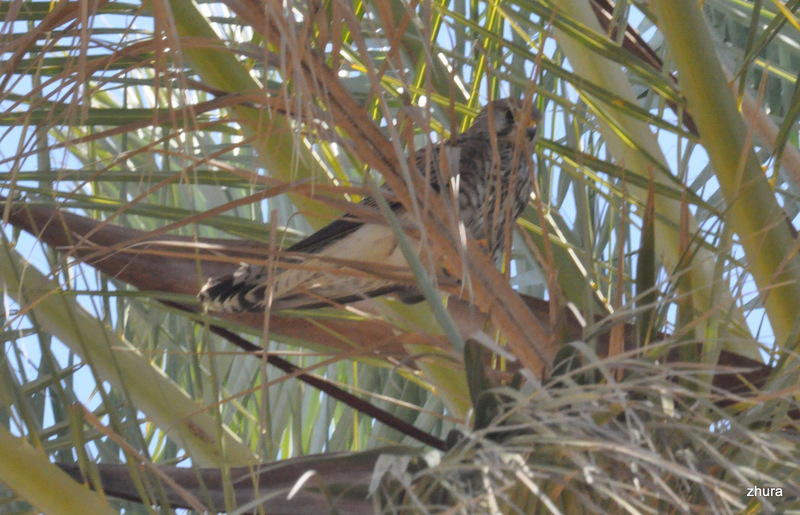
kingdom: Animalia
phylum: Chordata
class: Aves
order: Falconiformes
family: Falconidae
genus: Falco
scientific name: Falco tinnunculus
